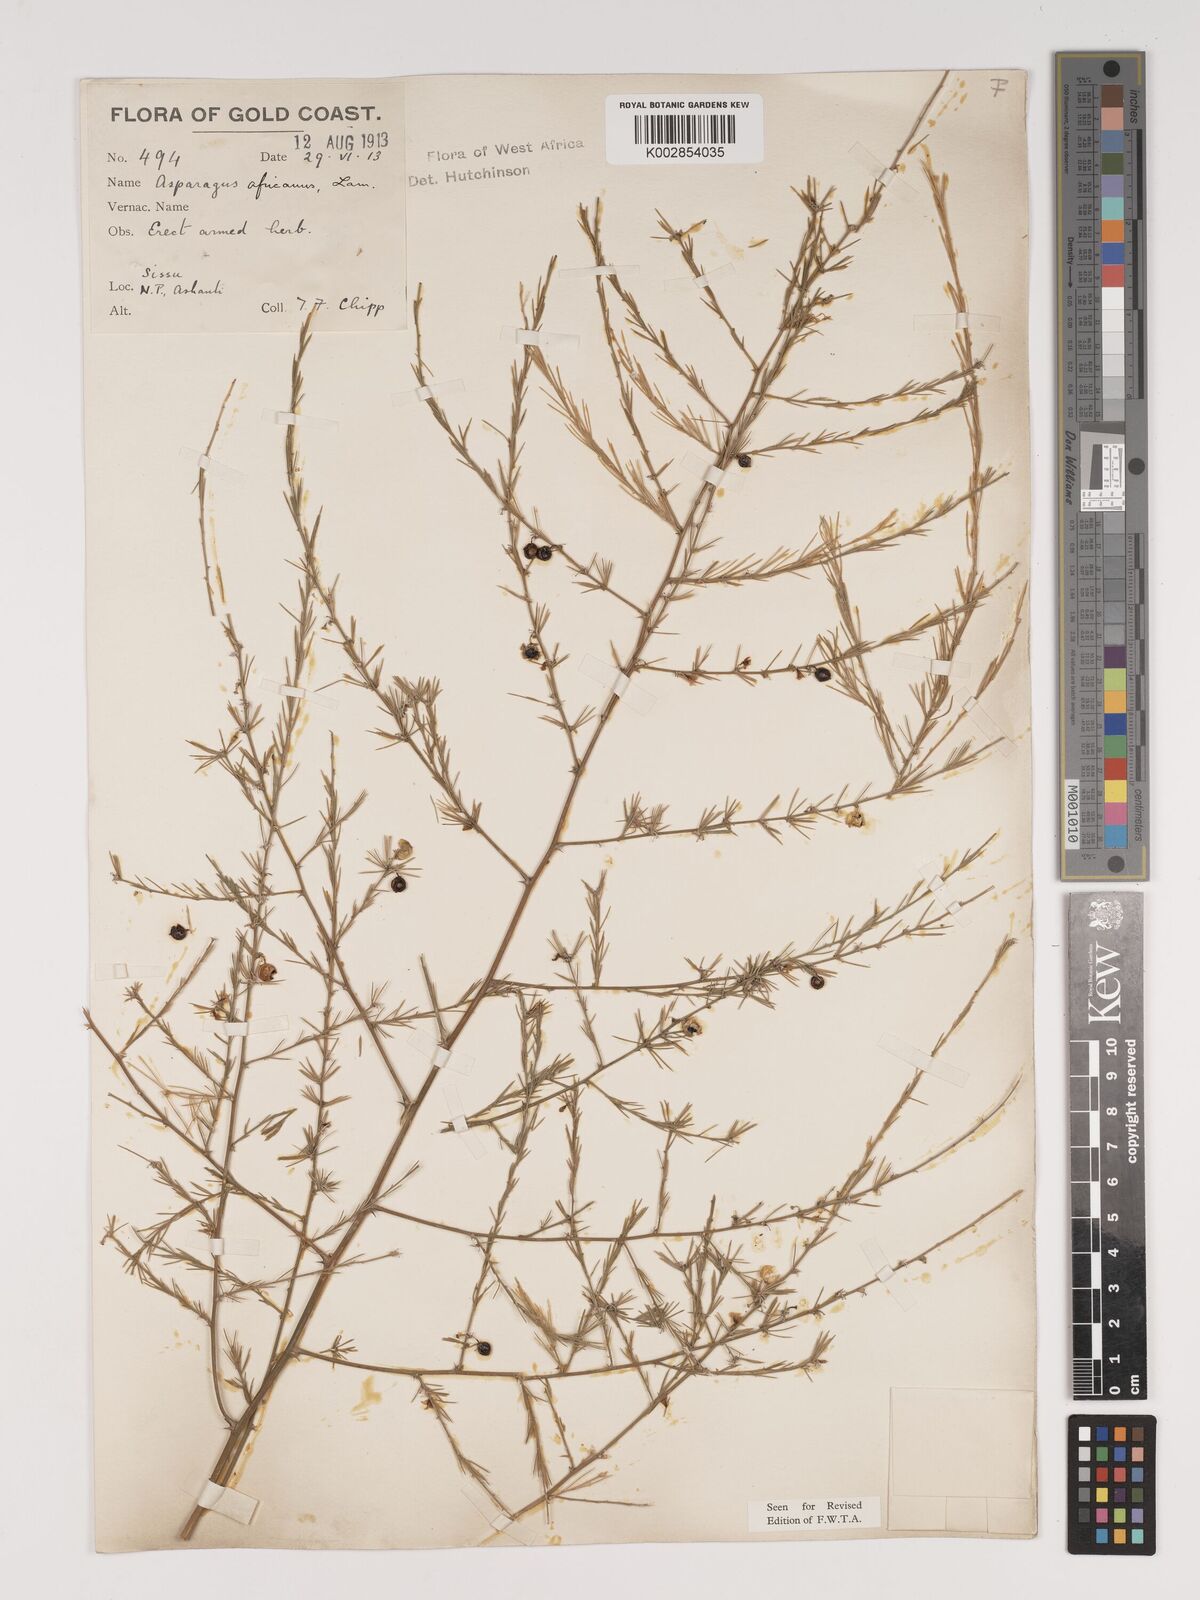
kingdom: Plantae
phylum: Tracheophyta
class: Liliopsida
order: Asparagales
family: Asparagaceae
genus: Asparagus
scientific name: Asparagus
